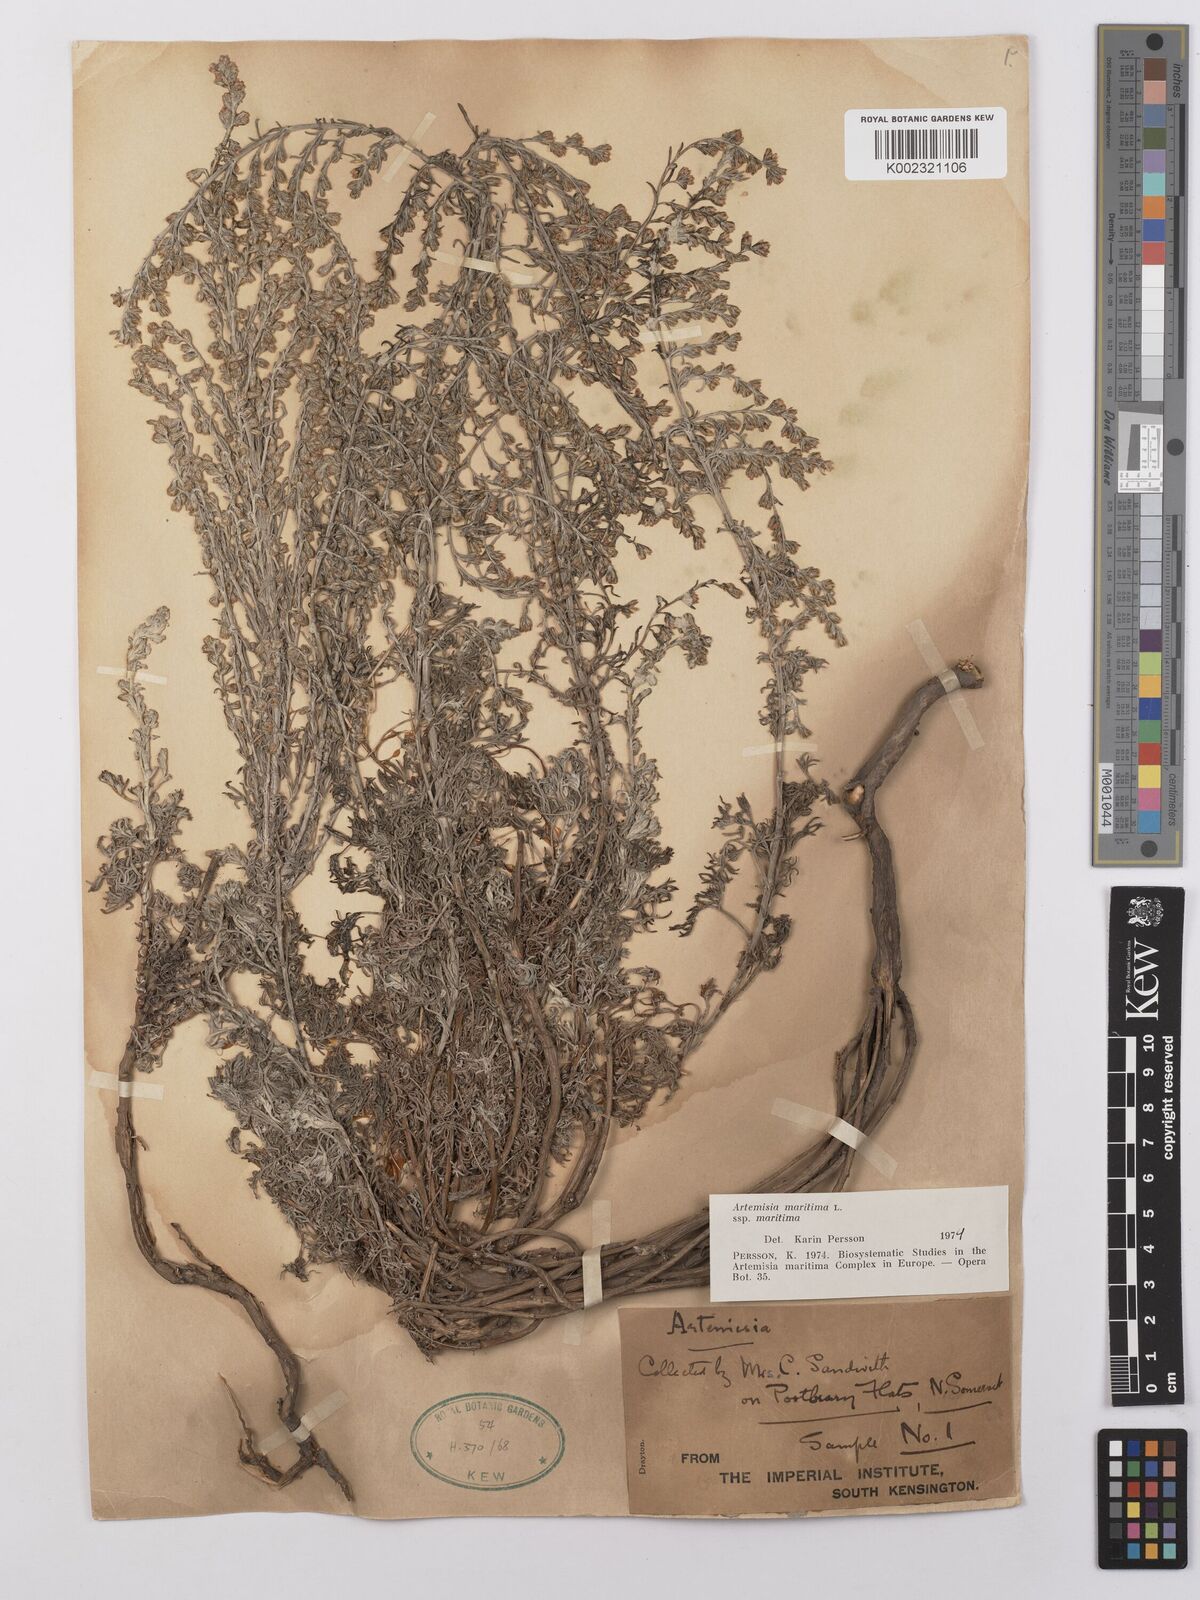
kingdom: Plantae
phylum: Tracheophyta
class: Magnoliopsida
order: Asterales
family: Asteraceae
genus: Artemisia
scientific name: Artemisia maritima
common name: Wormseed
